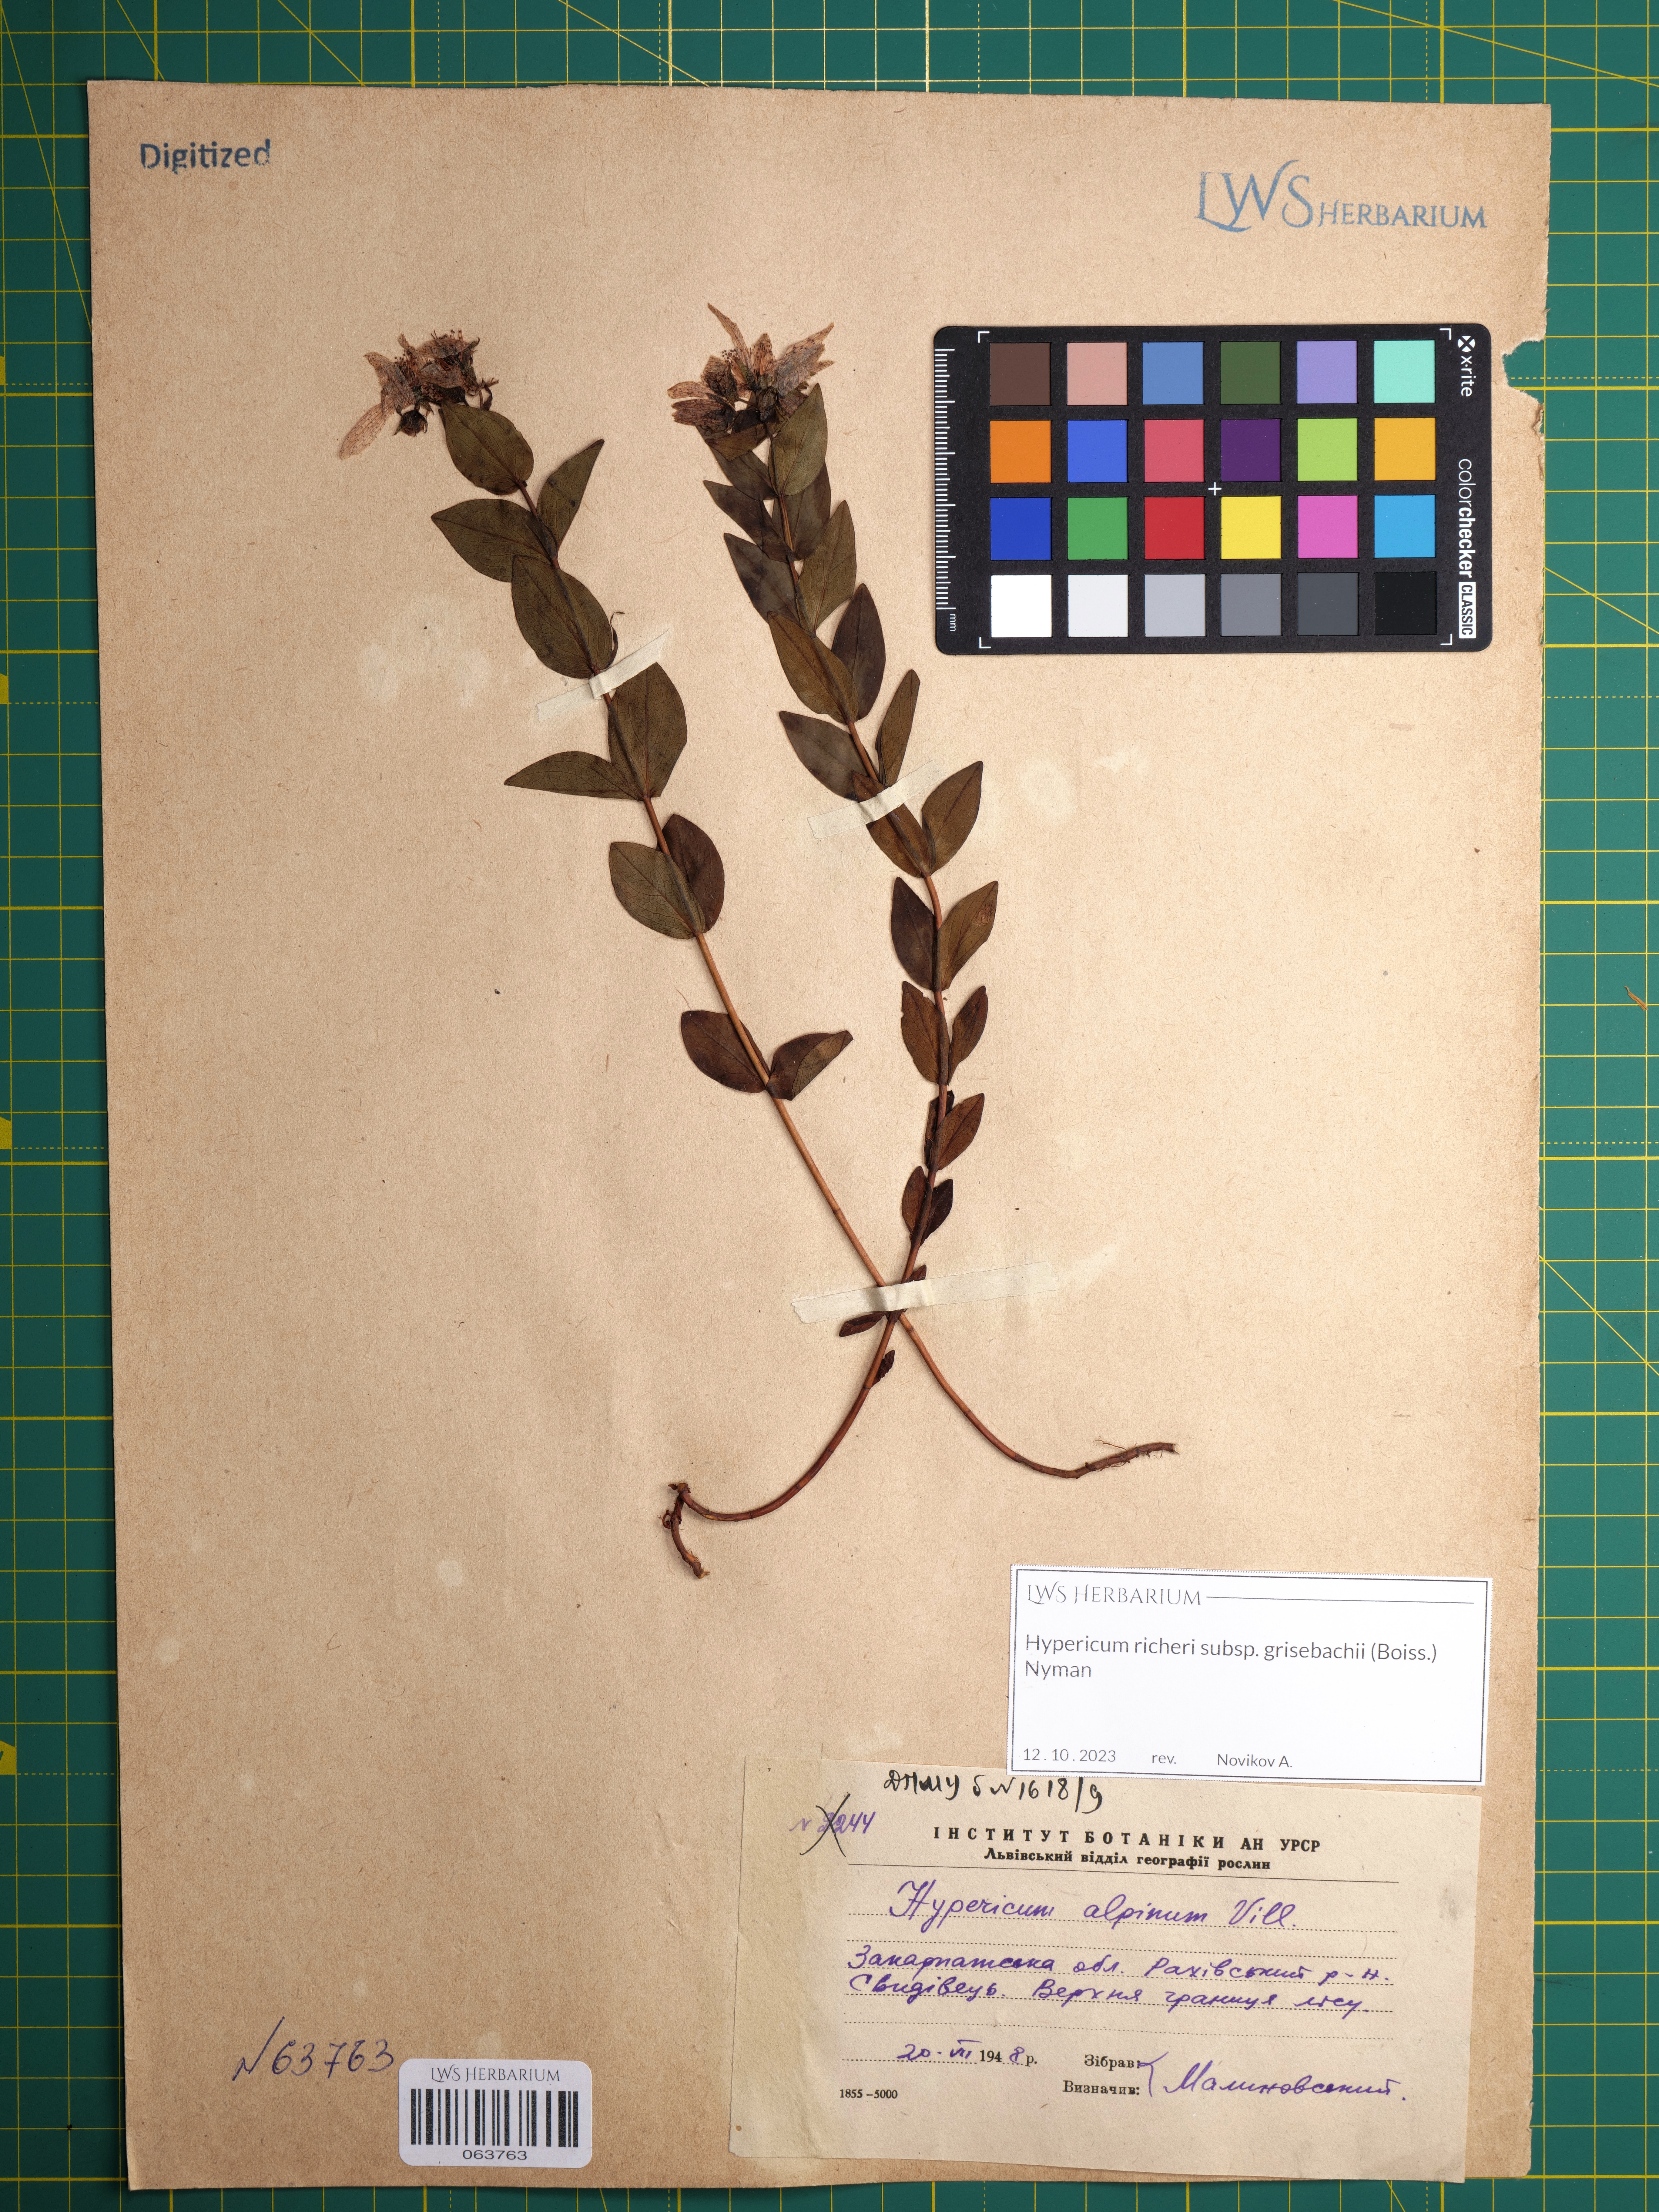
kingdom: Plantae
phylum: Tracheophyta
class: Magnoliopsida
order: Malpighiales
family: Hypericaceae
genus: Hypericum
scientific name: Hypericum richeri
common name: Alpine st john's-wort
